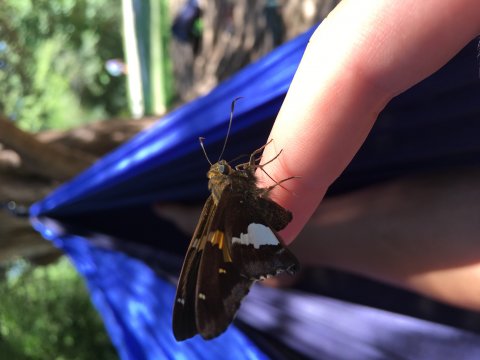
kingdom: Animalia
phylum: Arthropoda
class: Insecta
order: Lepidoptera
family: Hesperiidae
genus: Epargyreus
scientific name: Epargyreus clarus
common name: Silver-spotted Skipper
